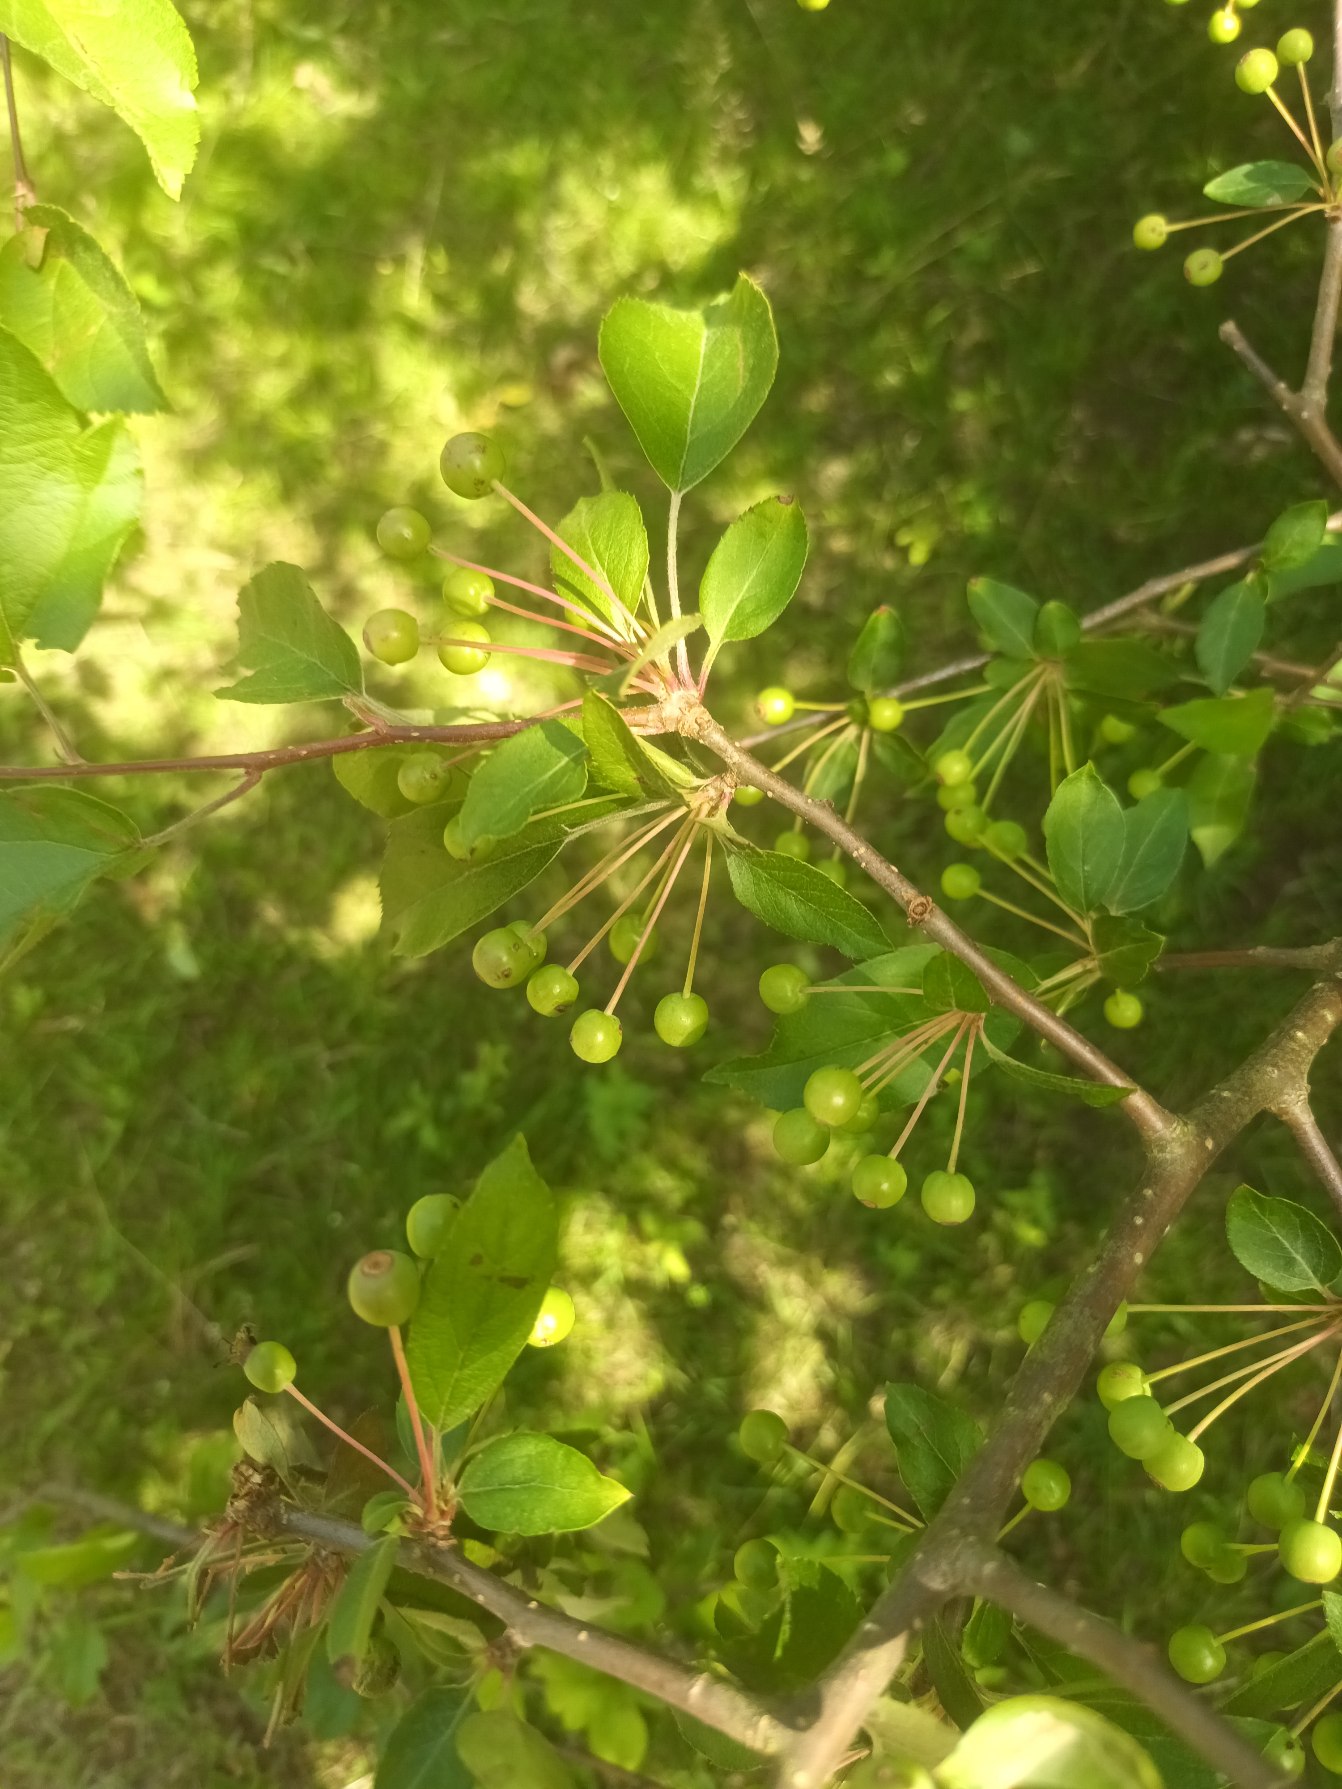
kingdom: Plantae
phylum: Tracheophyta
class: Magnoliopsida
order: Rosales
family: Rosaceae
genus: Malus
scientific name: Malus toringo
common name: Sargents-æble
